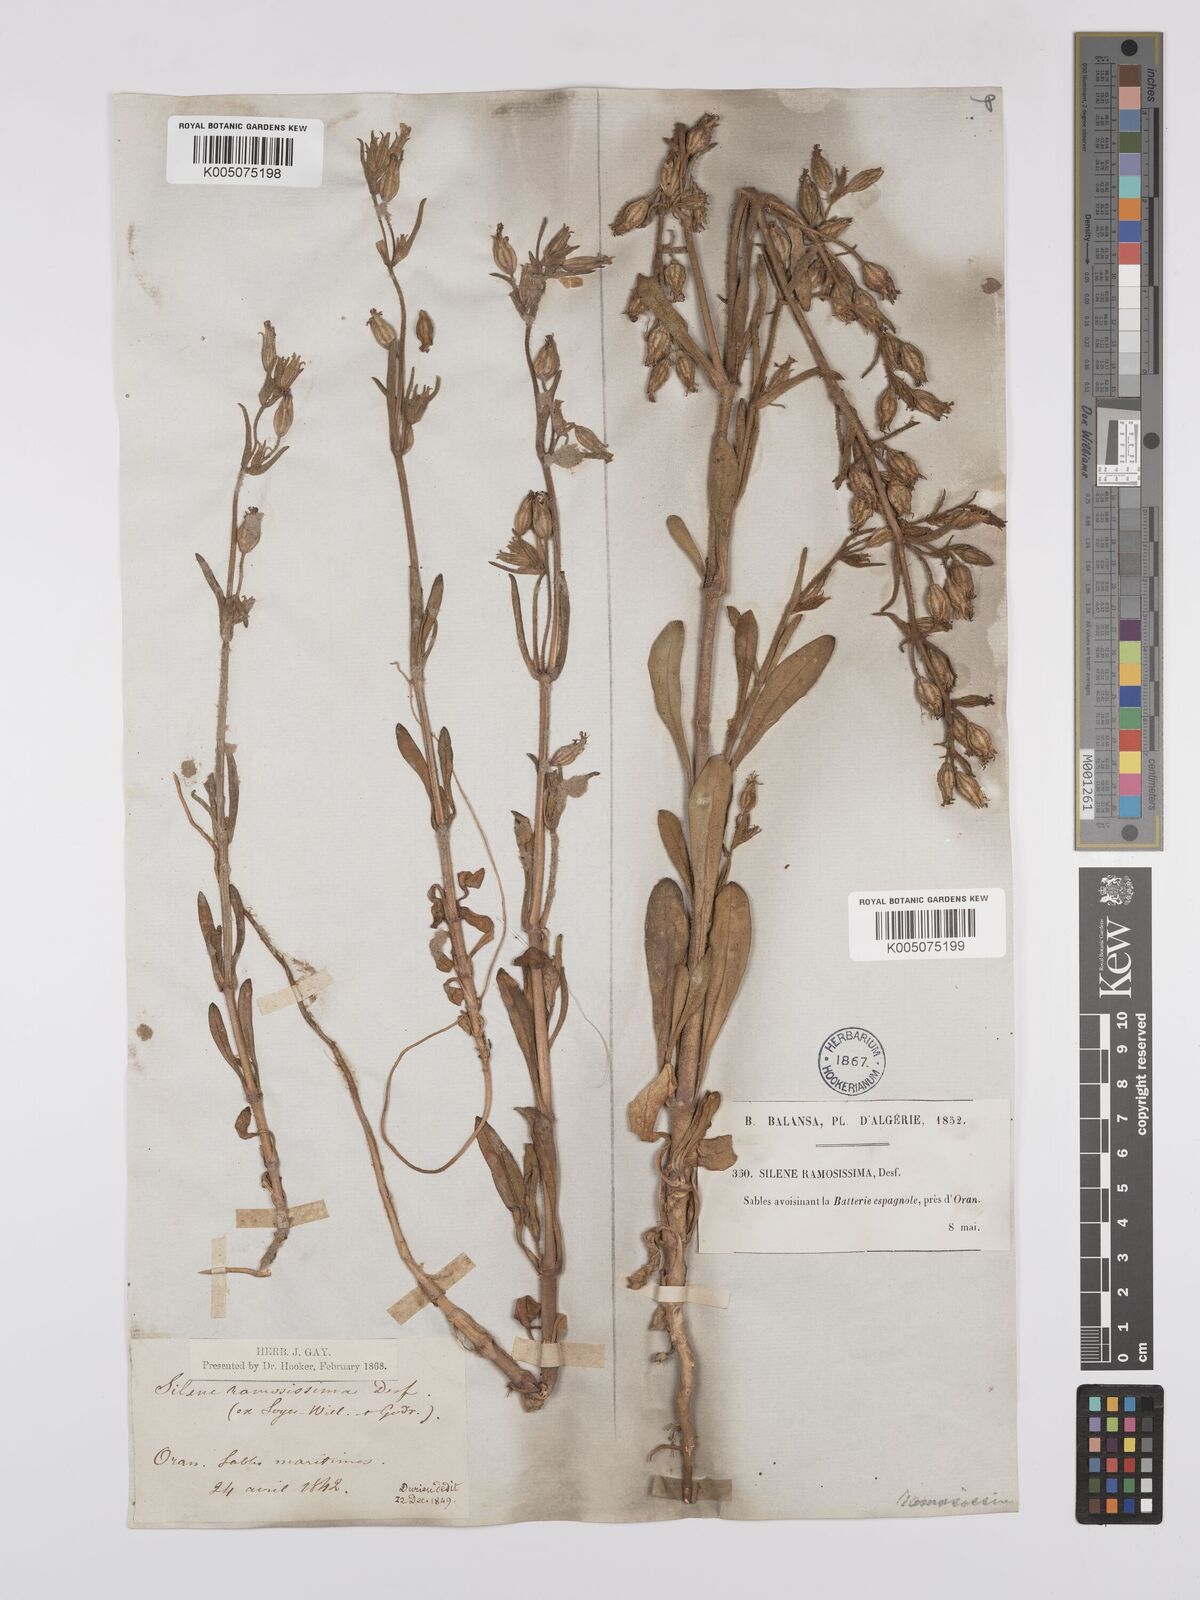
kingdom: Plantae
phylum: Tracheophyta
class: Magnoliopsida
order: Caryophyllales
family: Caryophyllaceae
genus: Silene
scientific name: Silene ramosissima
